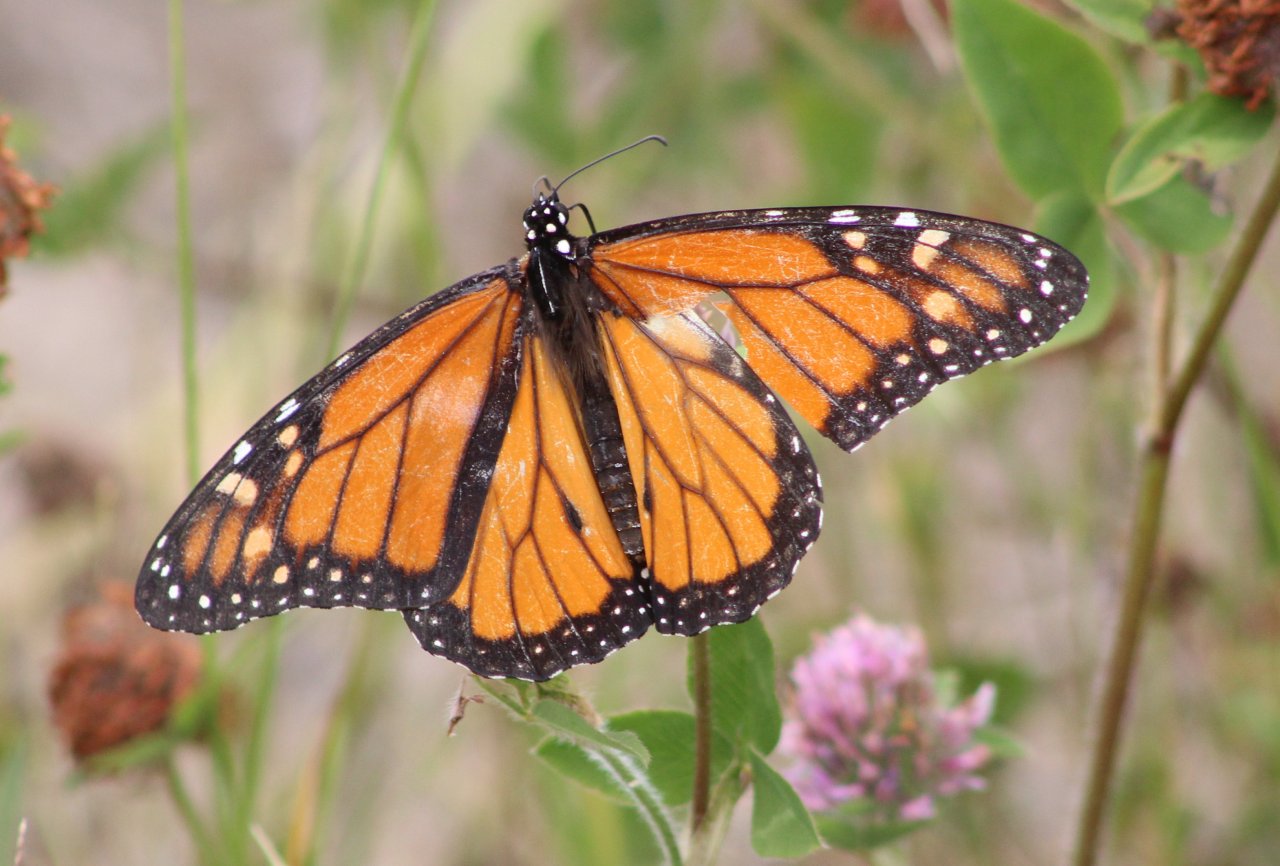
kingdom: Animalia
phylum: Arthropoda
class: Insecta
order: Lepidoptera
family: Nymphalidae
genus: Danaus
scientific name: Danaus plexippus
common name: Monarch
